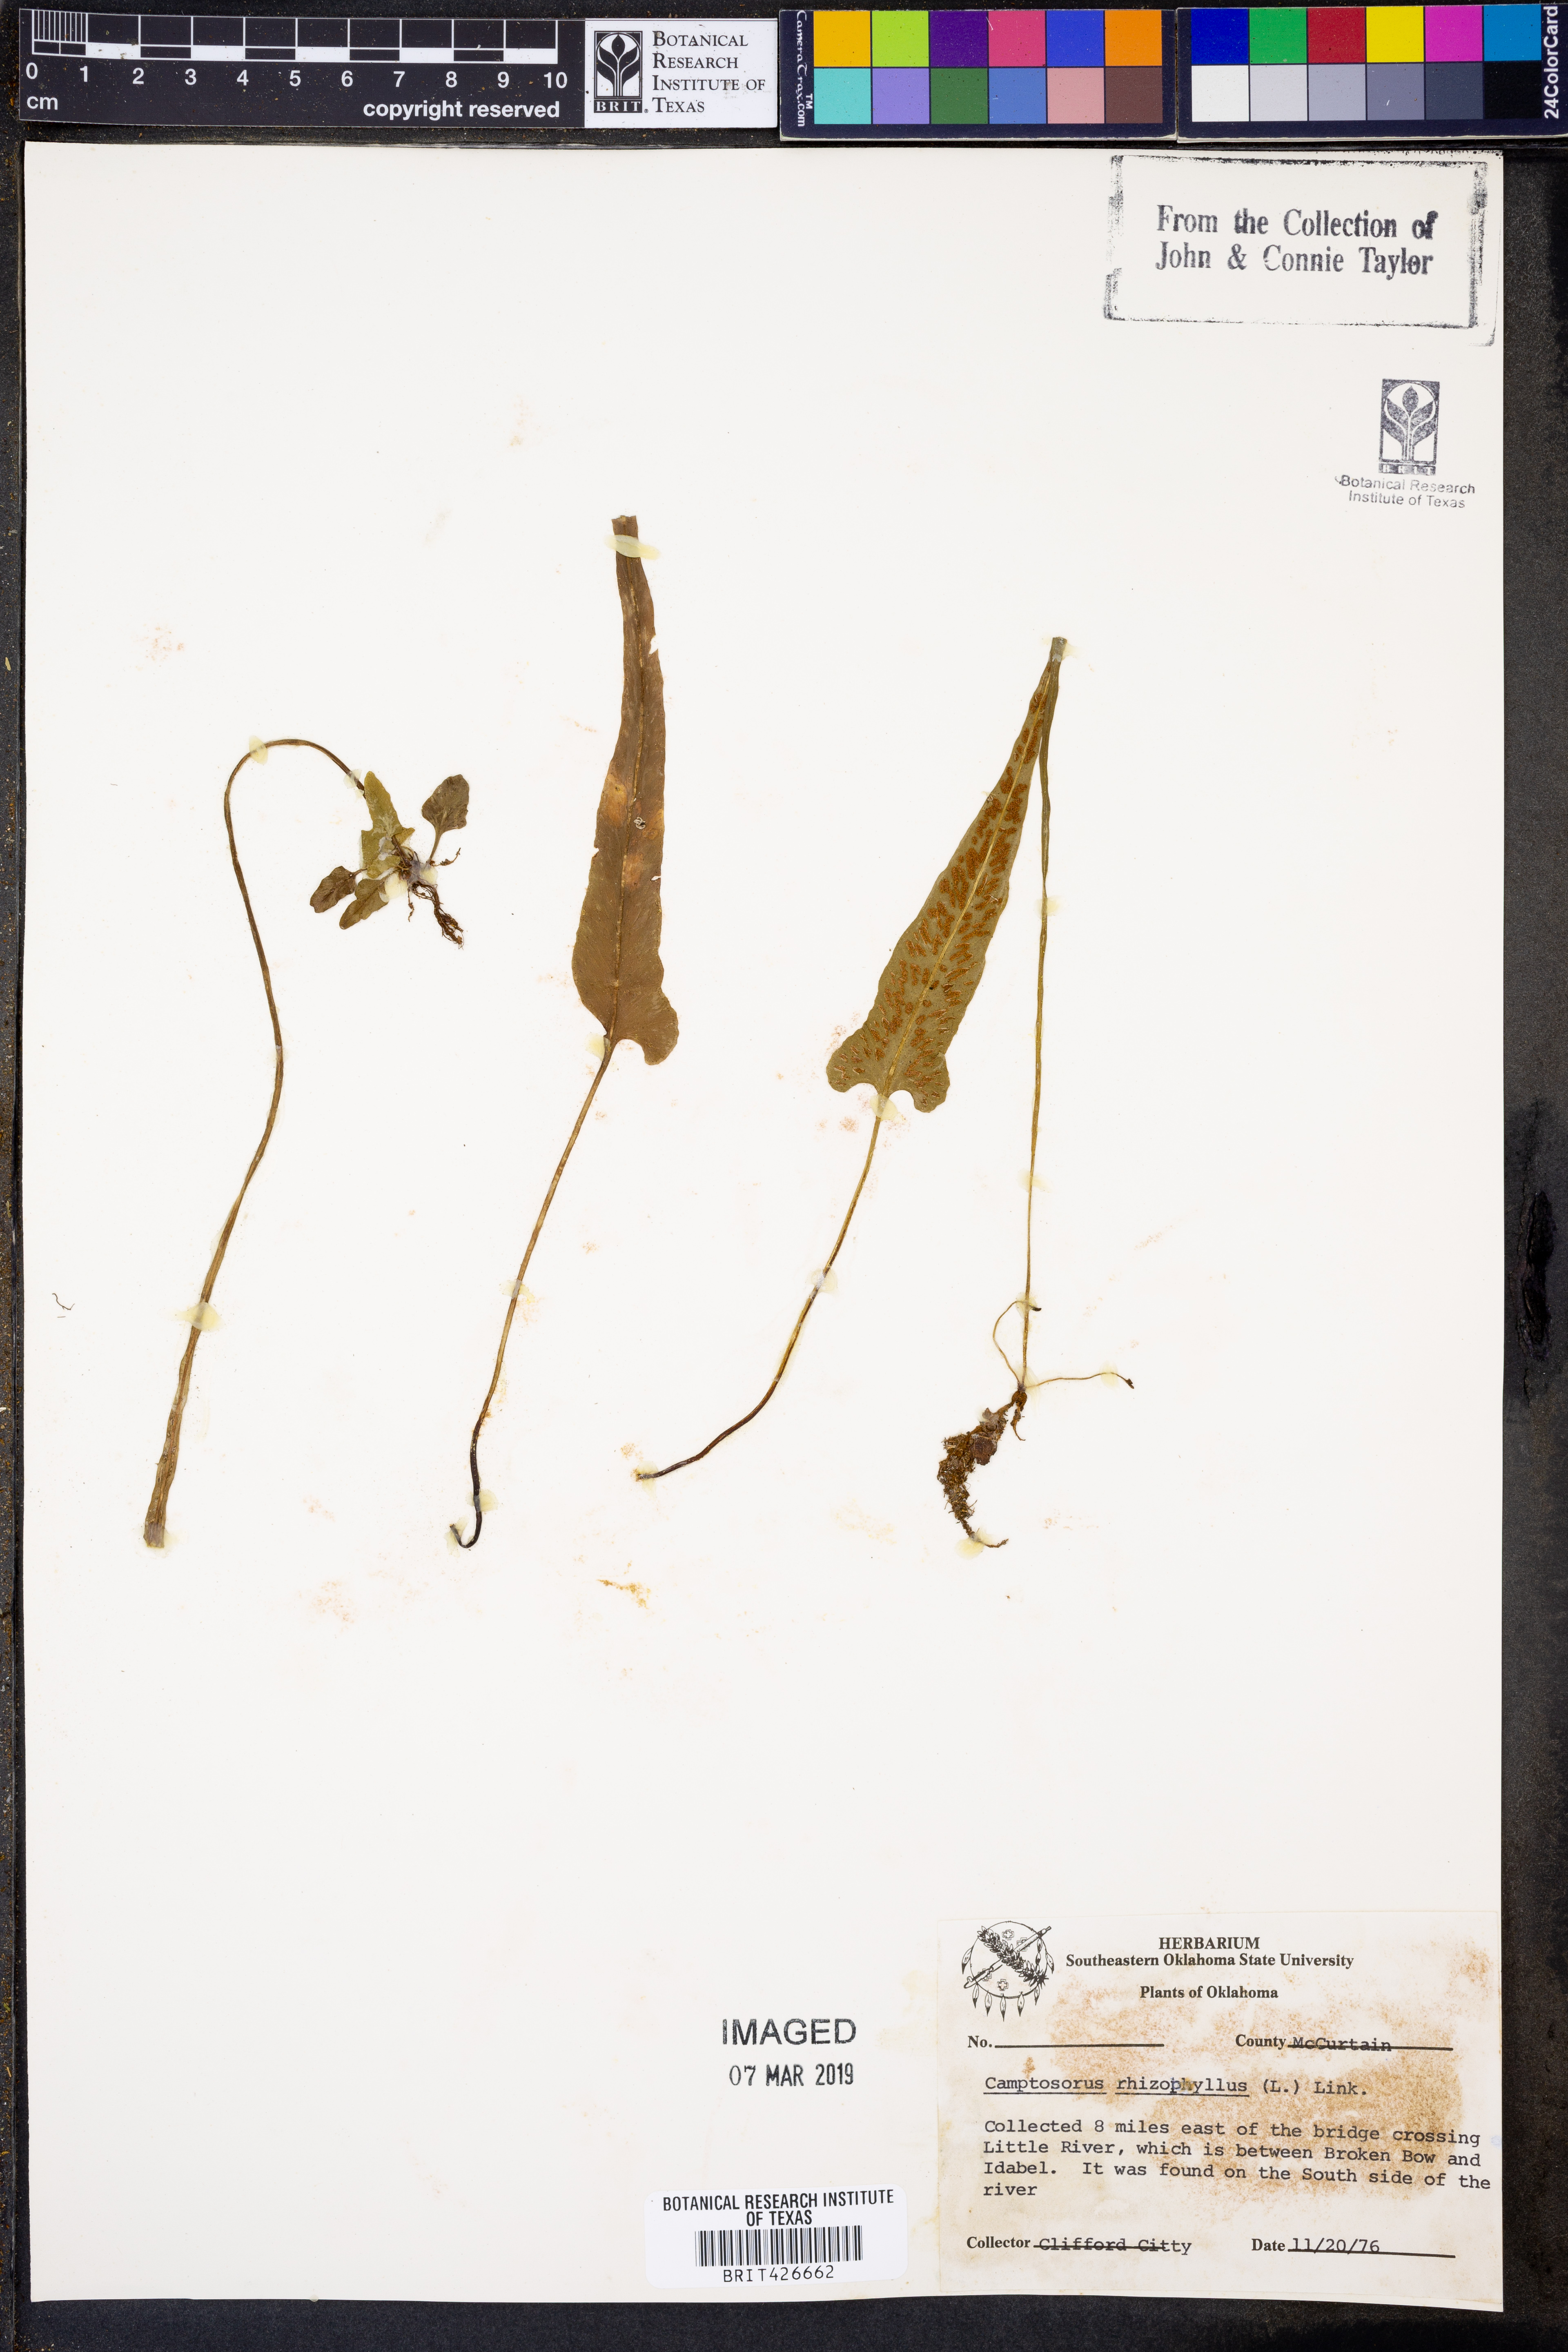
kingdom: Plantae
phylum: Tracheophyta
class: Polypodiopsida
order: Polypodiales
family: Aspleniaceae
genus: Asplenium
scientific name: Asplenium rhizophyllum
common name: Walking fern
